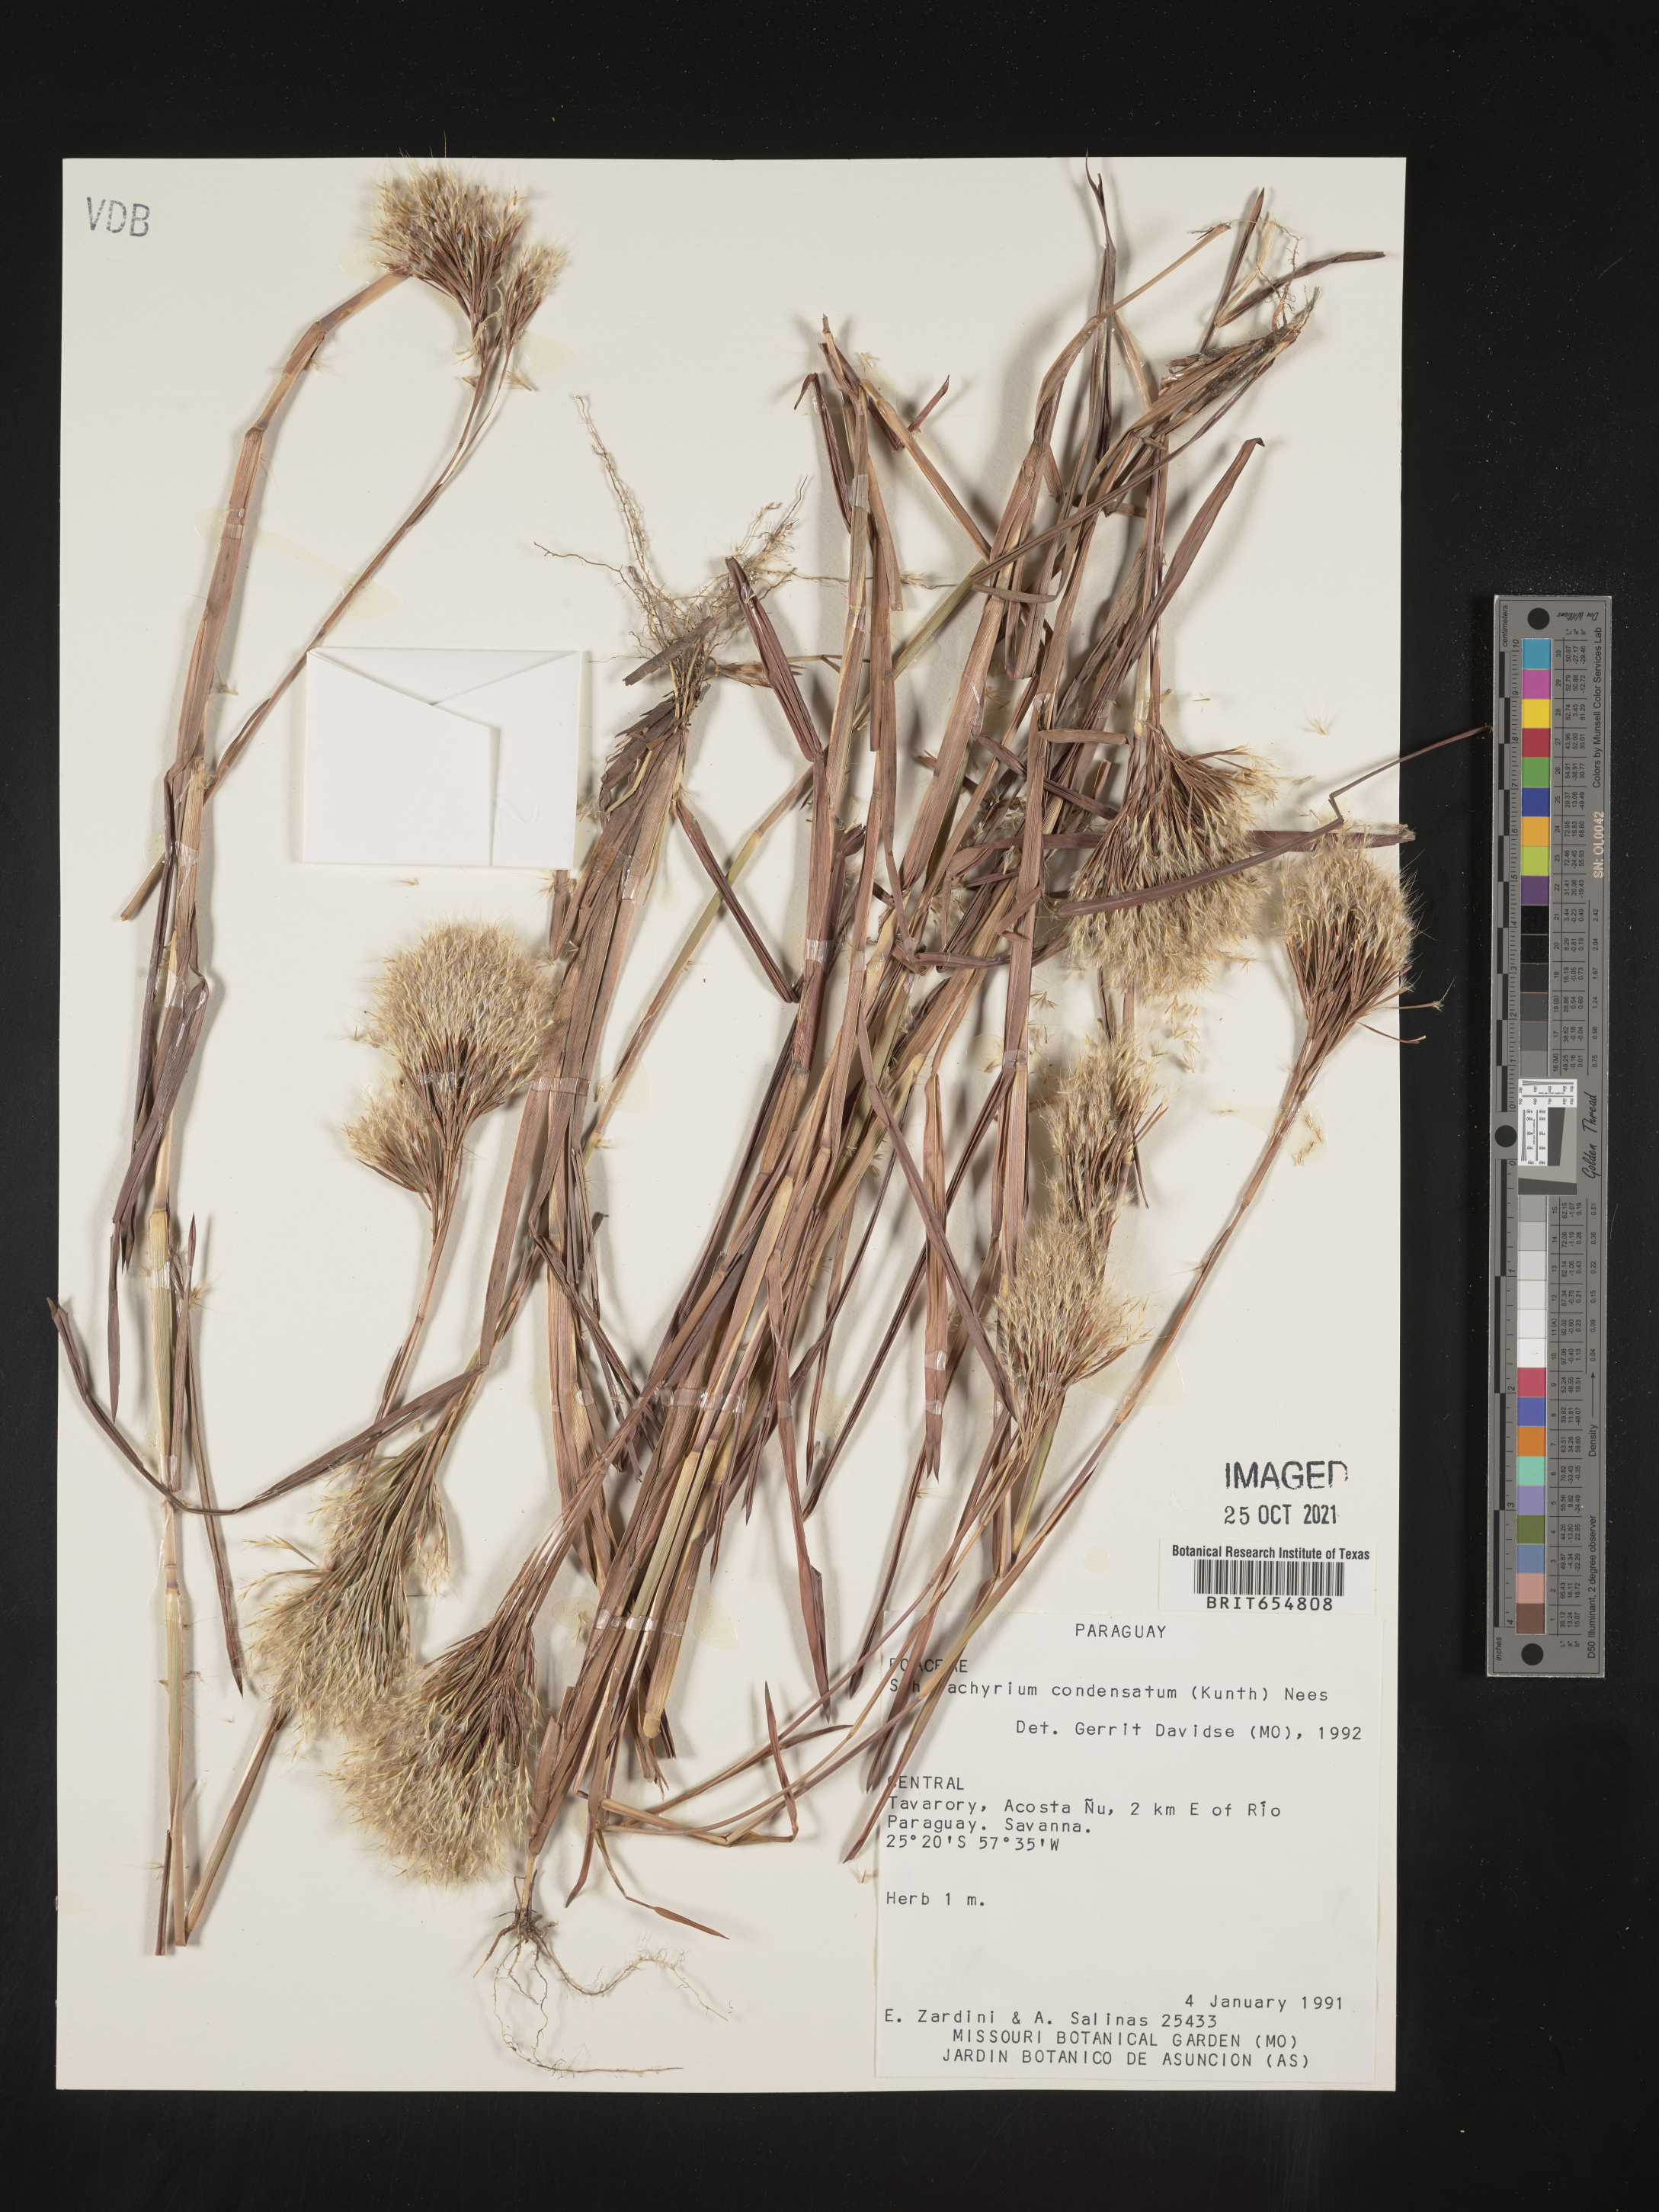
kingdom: Plantae
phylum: Tracheophyta
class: Liliopsida
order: Poales
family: Poaceae
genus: Andropogon
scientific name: Andropogon
